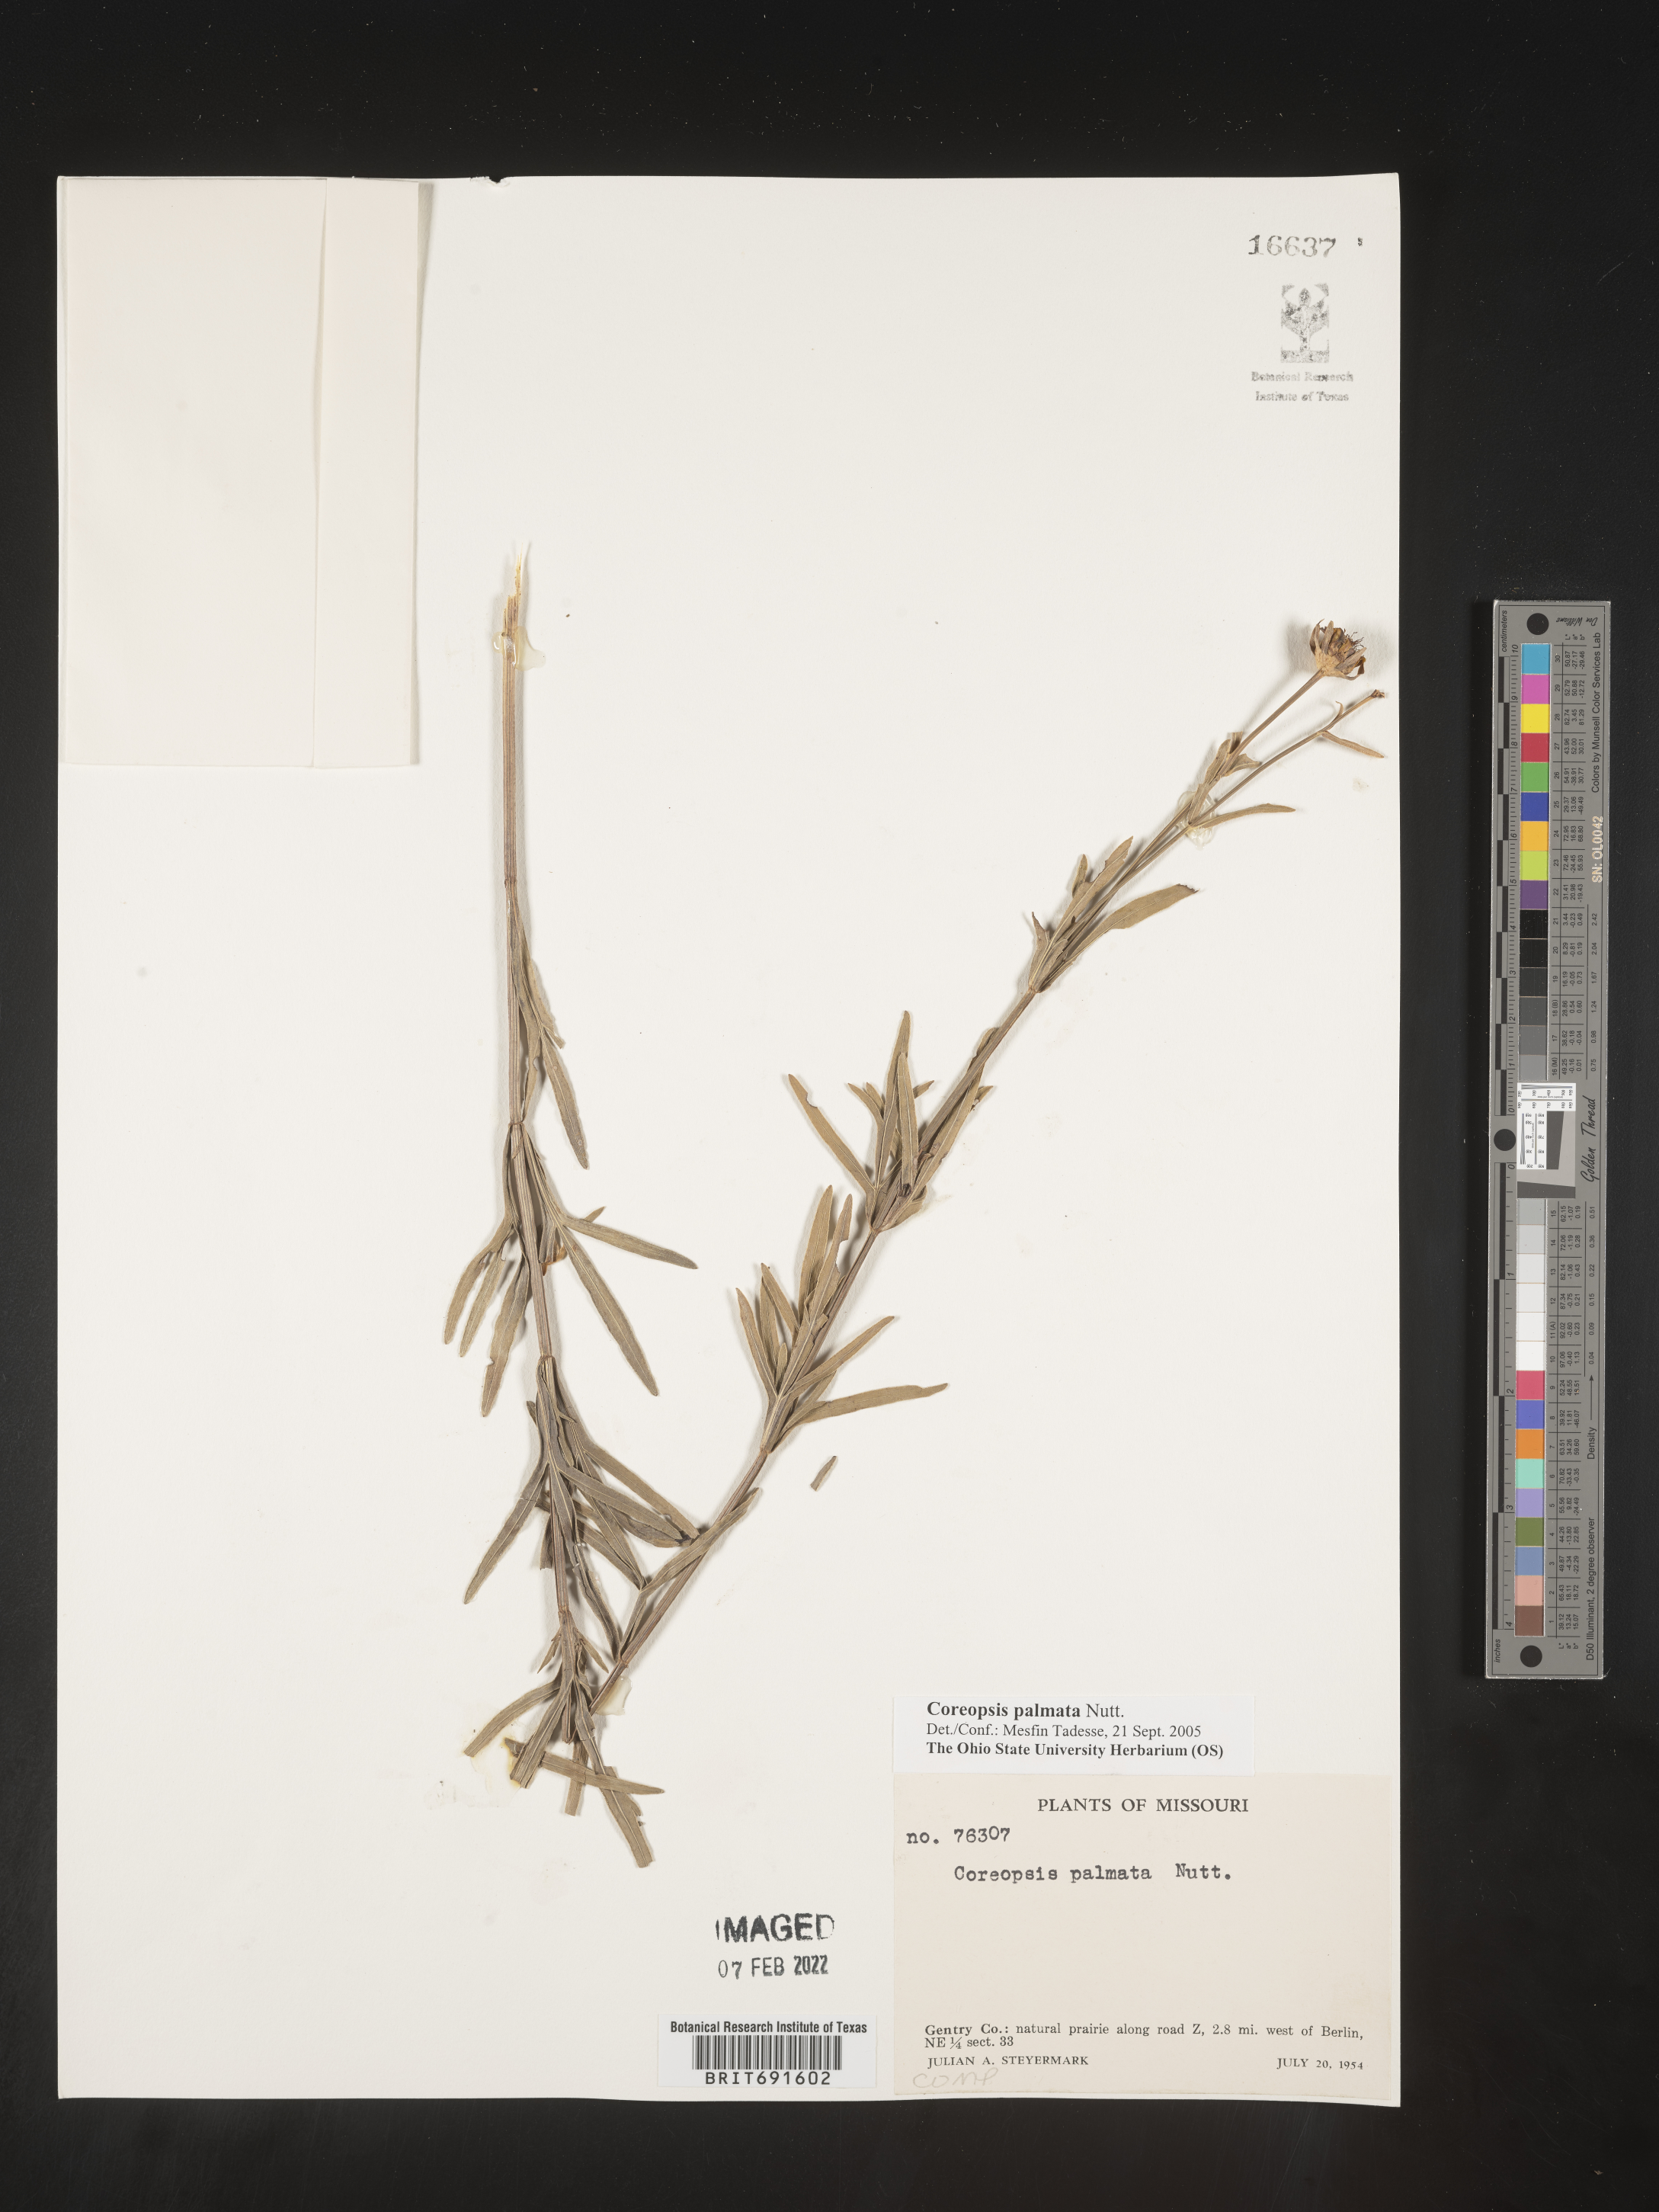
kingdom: Plantae
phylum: Tracheophyta
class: Magnoliopsida
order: Asterales
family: Asteraceae
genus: Coreopsis
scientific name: Coreopsis palmata
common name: Prairie coreopsis
